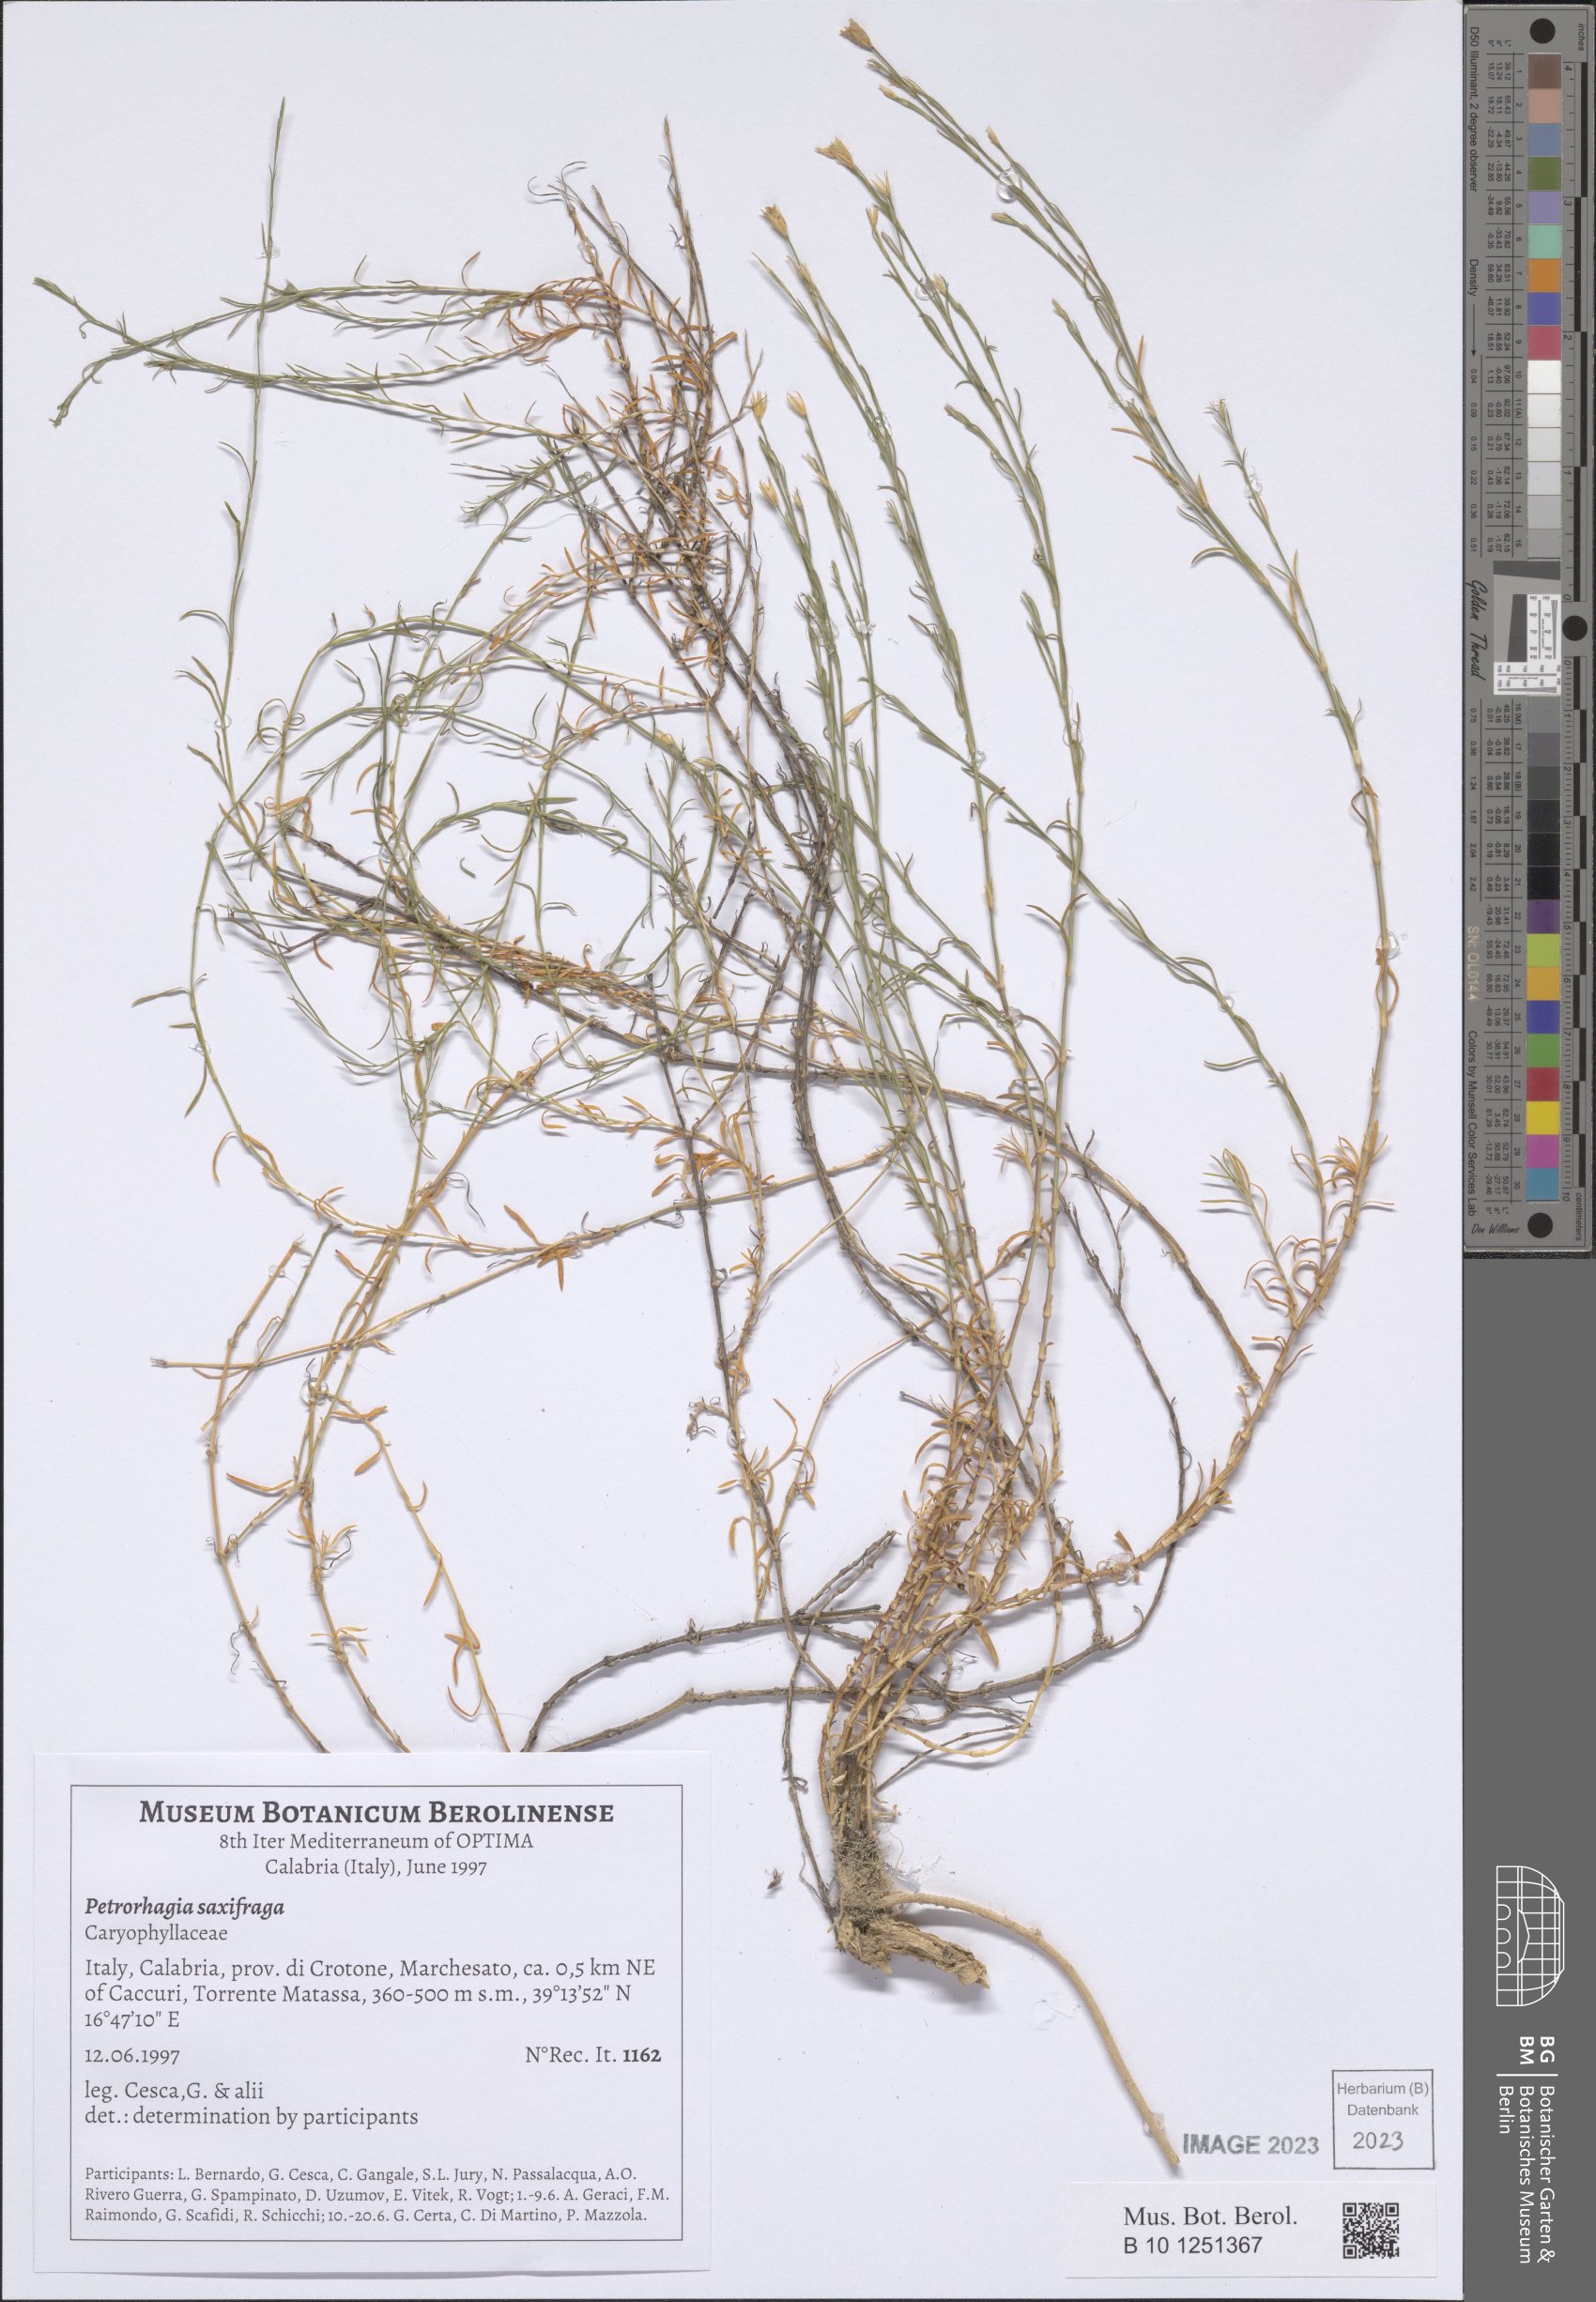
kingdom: Plantae
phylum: Tracheophyta
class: Magnoliopsida
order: Caryophyllales
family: Caryophyllaceae
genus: Petrorhagia
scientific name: Petrorhagia saxifraga
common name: Tunicflower
